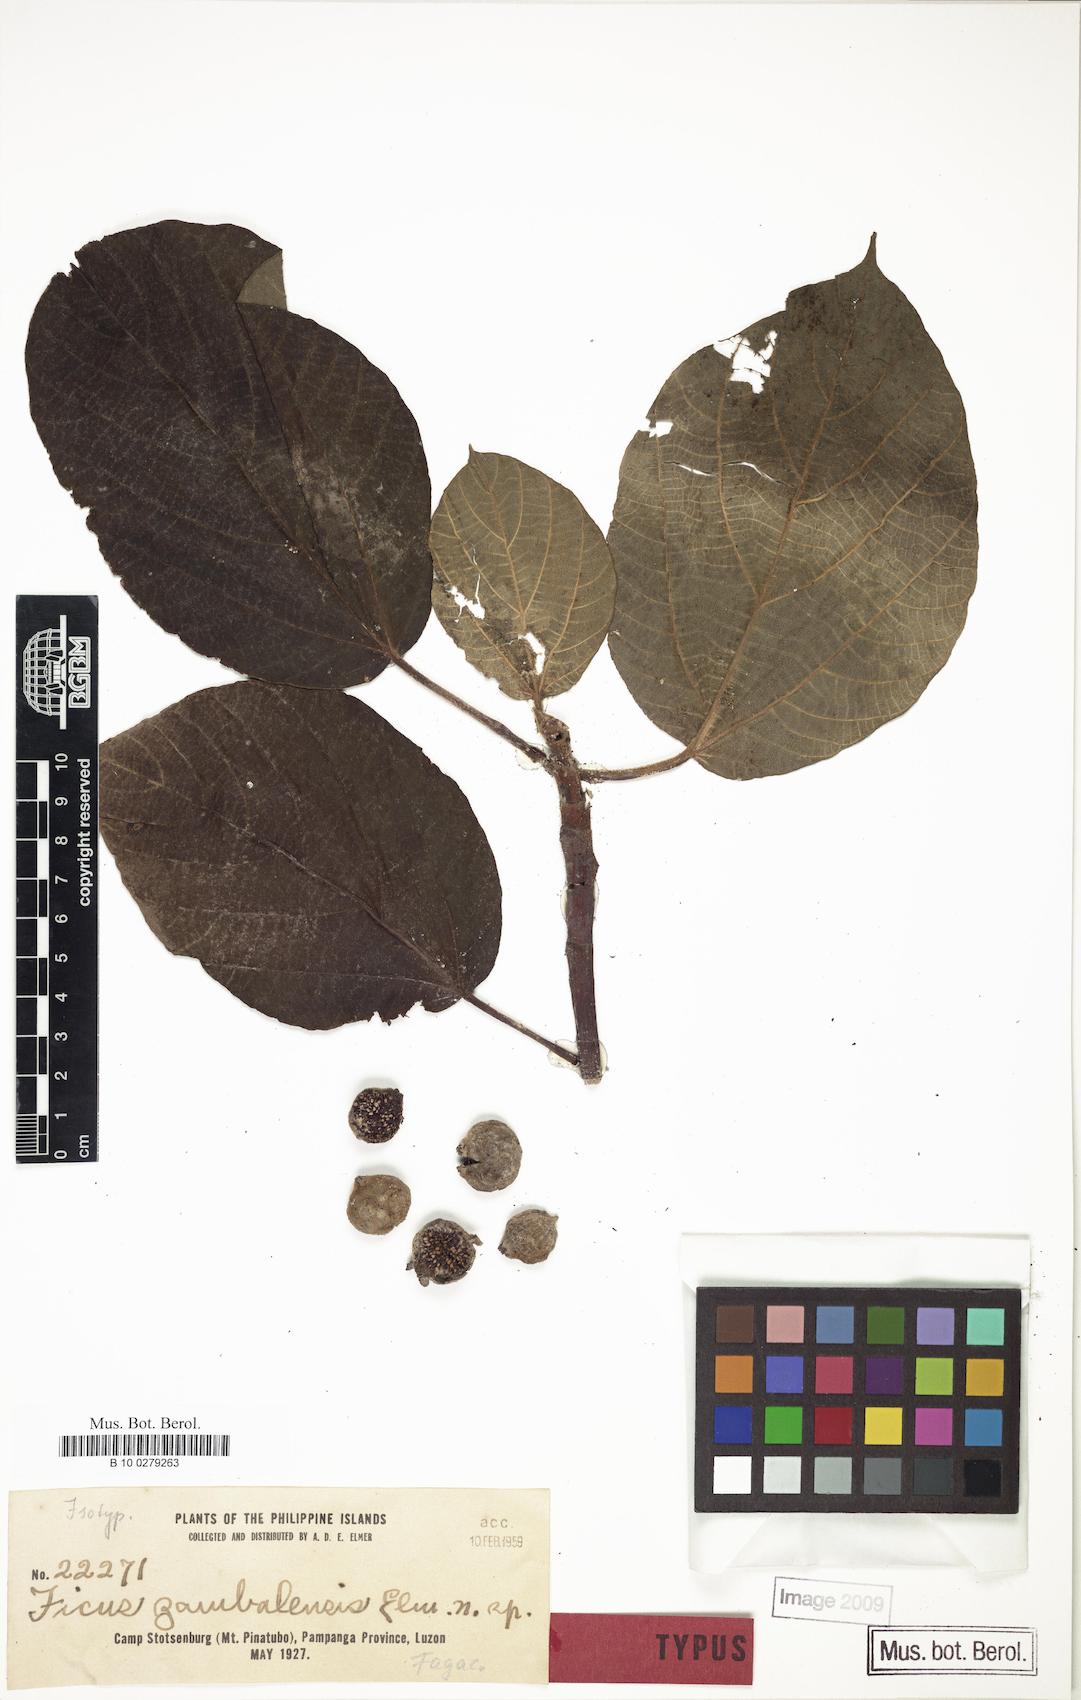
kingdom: Plantae
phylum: Tracheophyta
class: Magnoliopsida
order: Rosales
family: Moraceae
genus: Ficus
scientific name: Ficus ruficaulis
